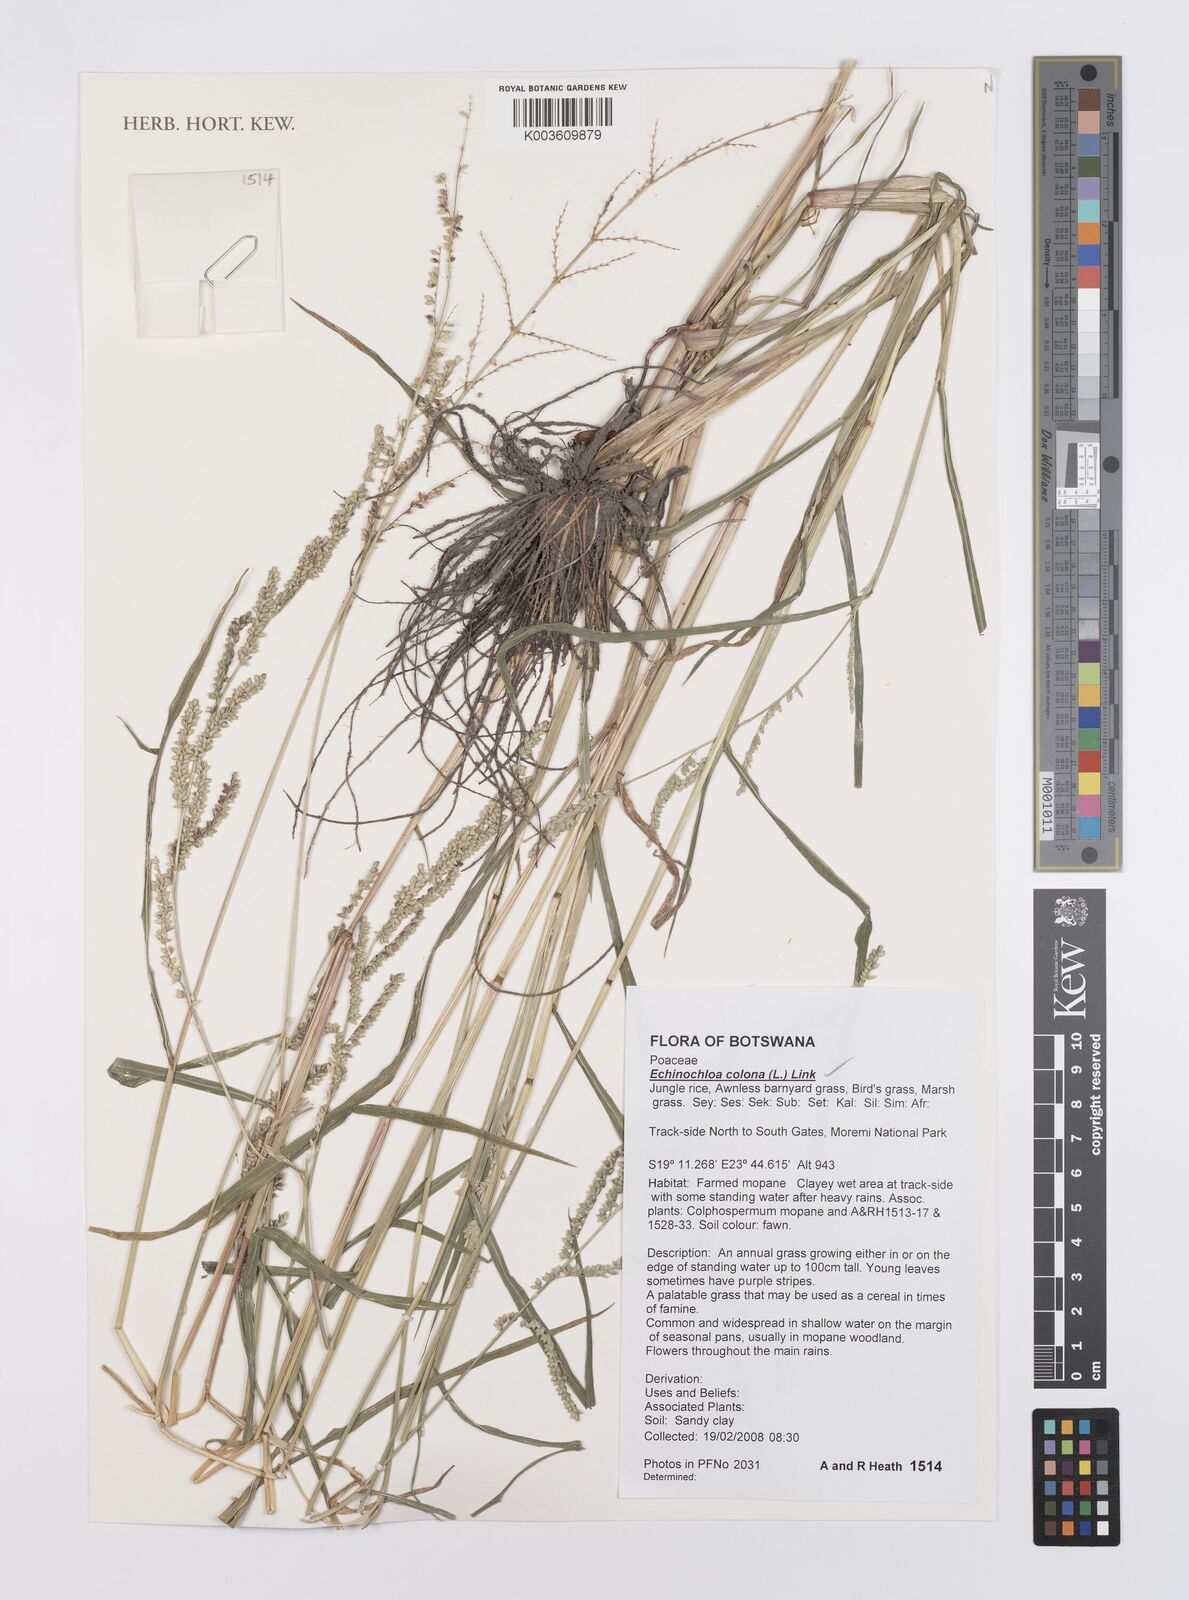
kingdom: Plantae
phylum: Tracheophyta
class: Liliopsida
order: Poales
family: Poaceae
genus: Echinochloa
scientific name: Echinochloa colonum
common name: Jungle rice
